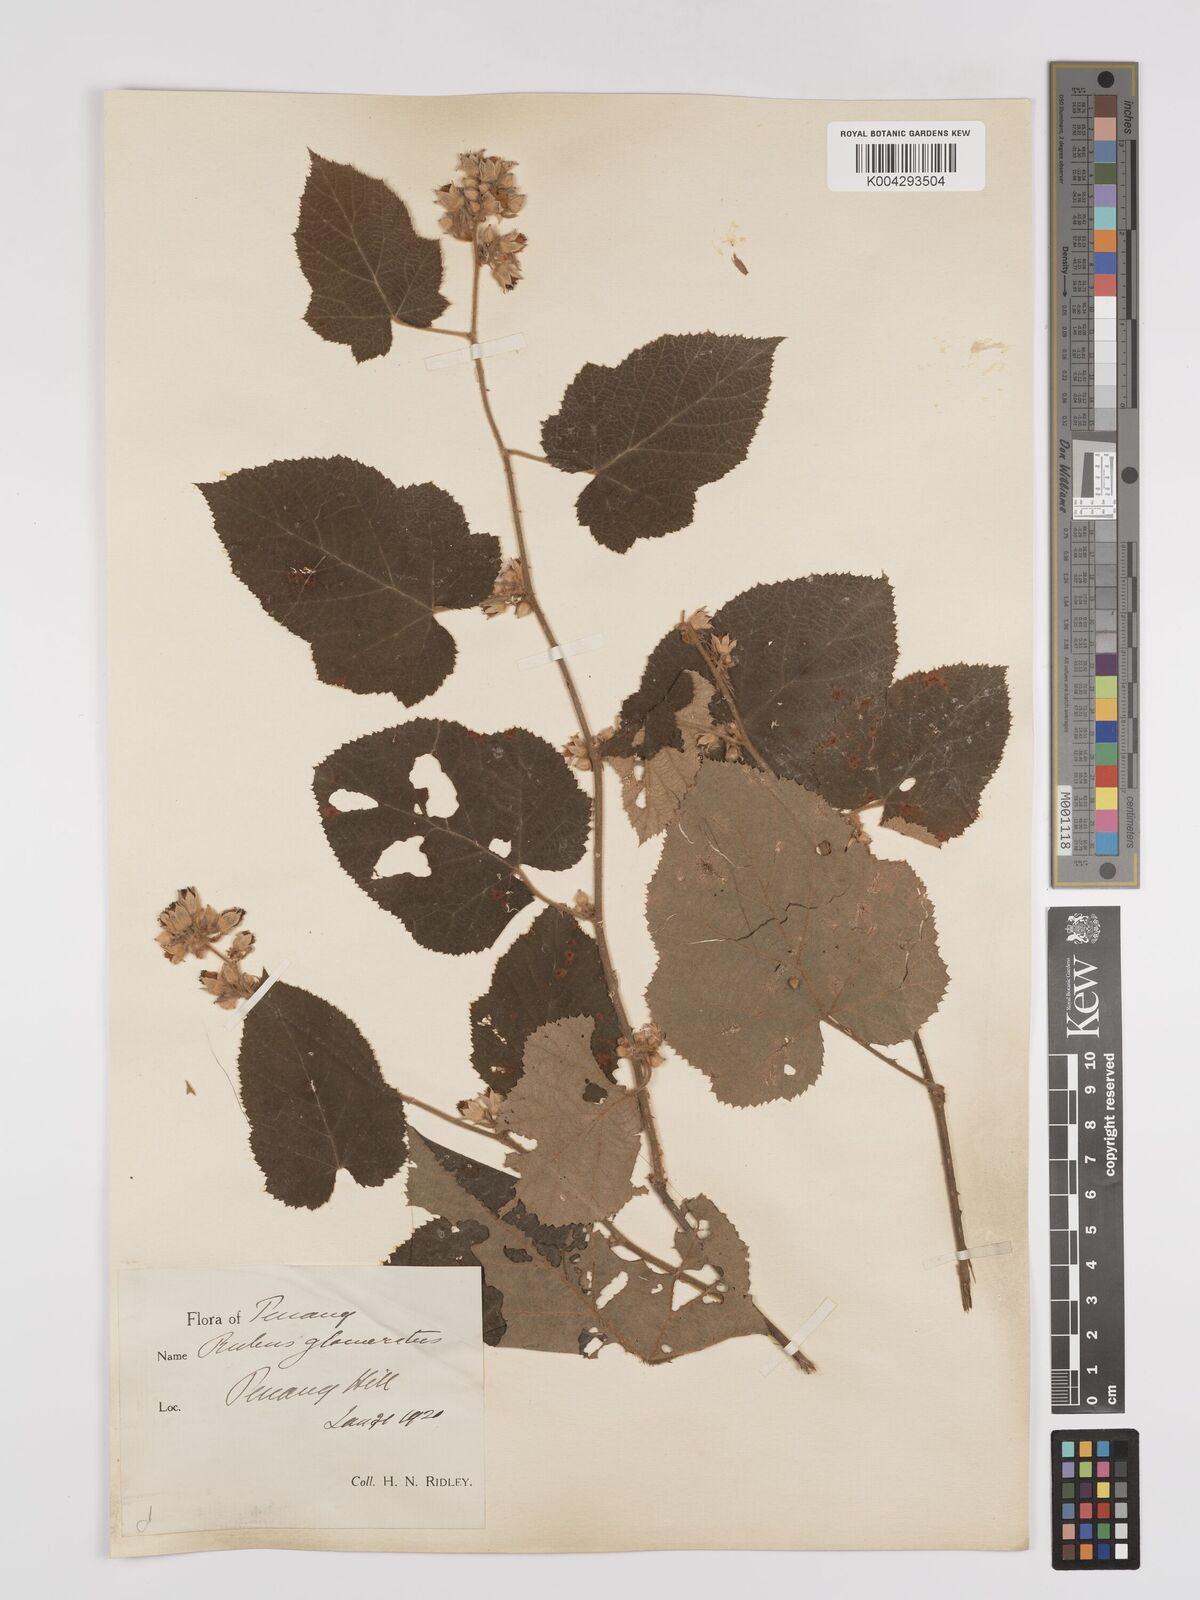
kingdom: Plantae
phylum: Tracheophyta
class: Magnoliopsida
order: Rosales
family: Rosaceae
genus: Rubus
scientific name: Rubus moluccanus
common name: Wild raspberry
